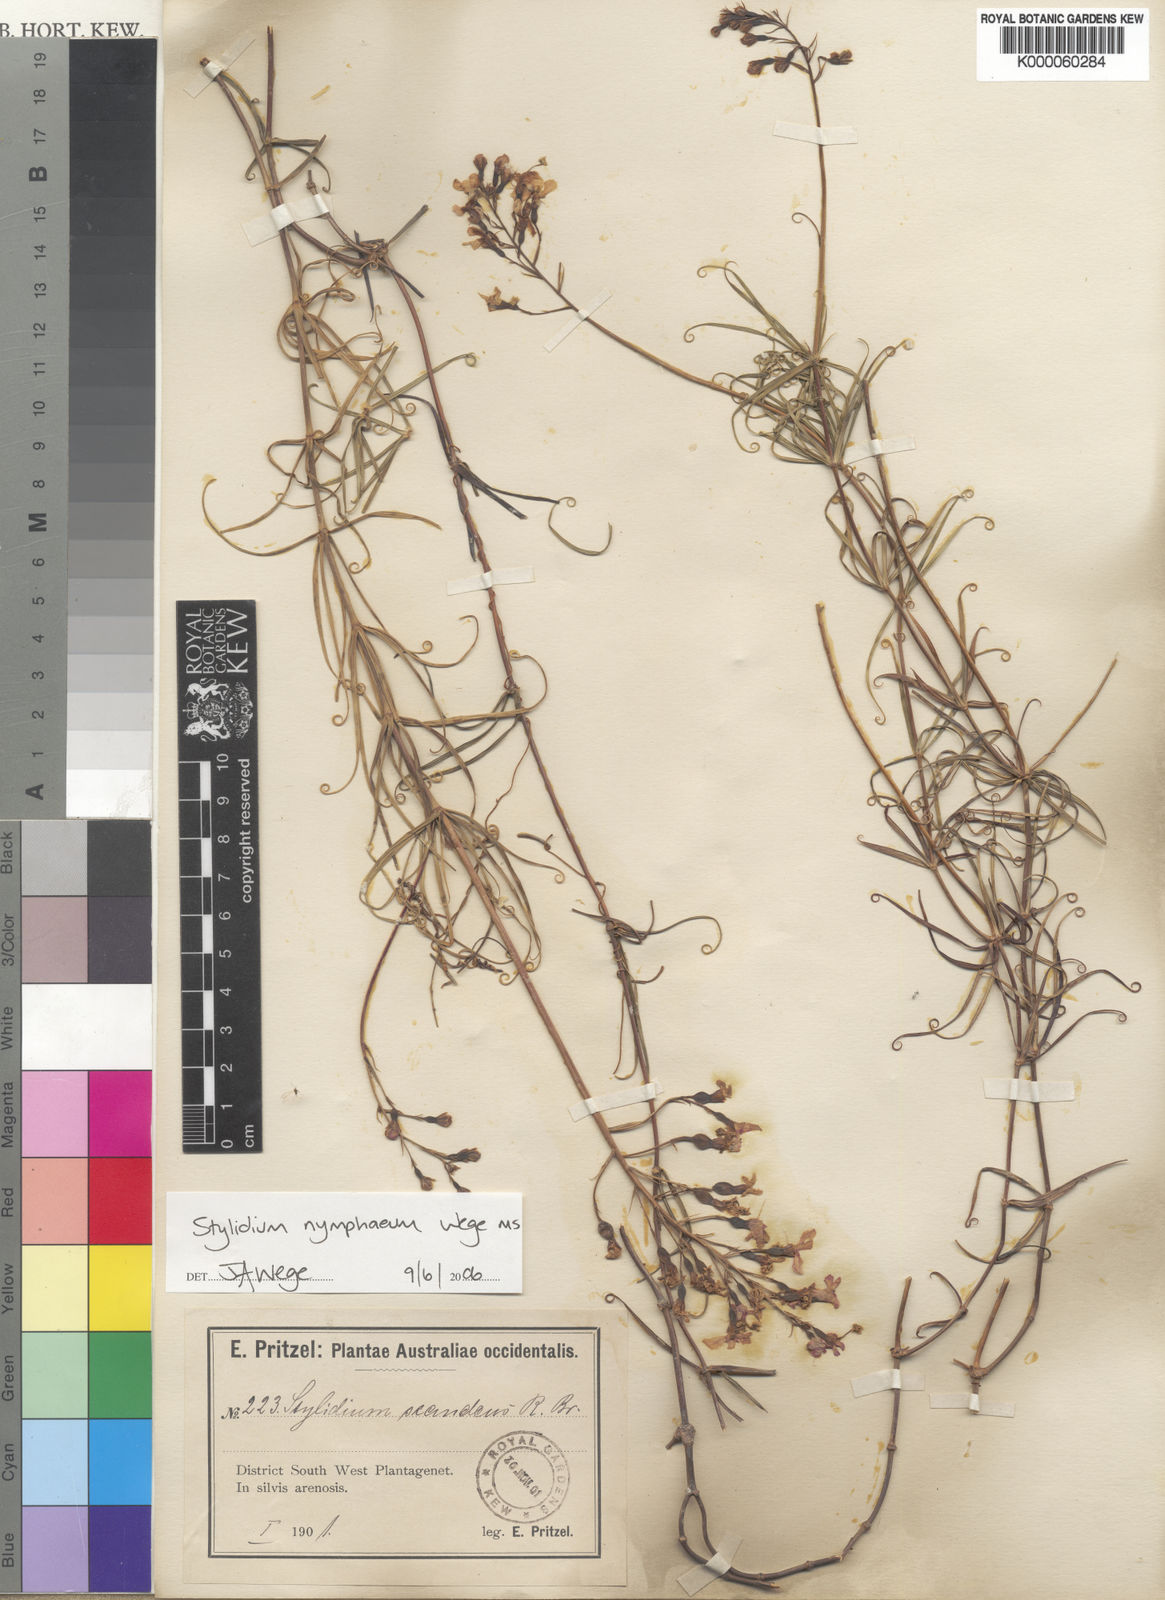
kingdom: Plantae
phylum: Tracheophyta
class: Magnoliopsida
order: Asterales
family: Stylidiaceae
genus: Stylidium
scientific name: Stylidium nymphaeum
